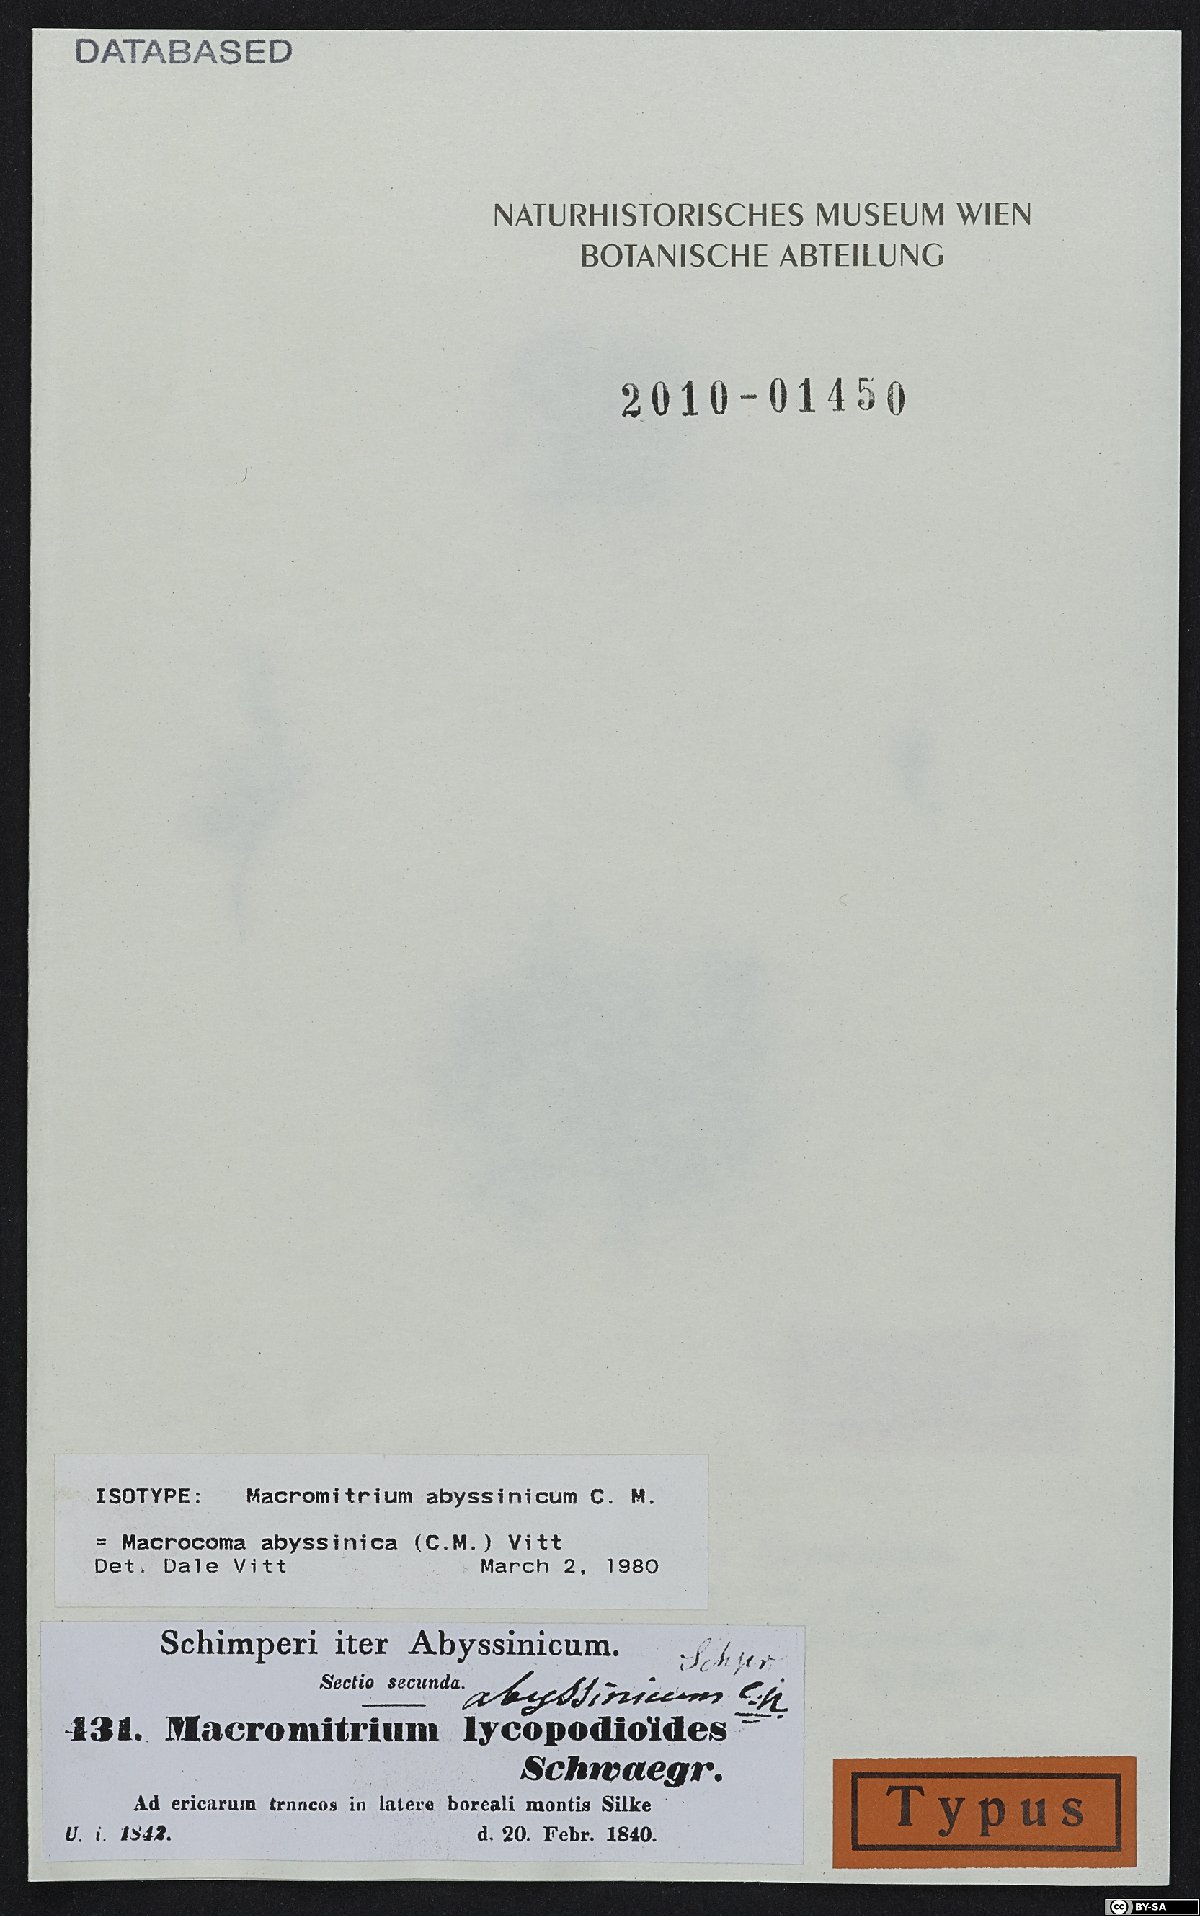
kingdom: Plantae
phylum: Bryophyta
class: Bryopsida
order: Orthotrichales
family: Orthotrichaceae
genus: Macrocoma
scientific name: Macrocoma abyssinica
